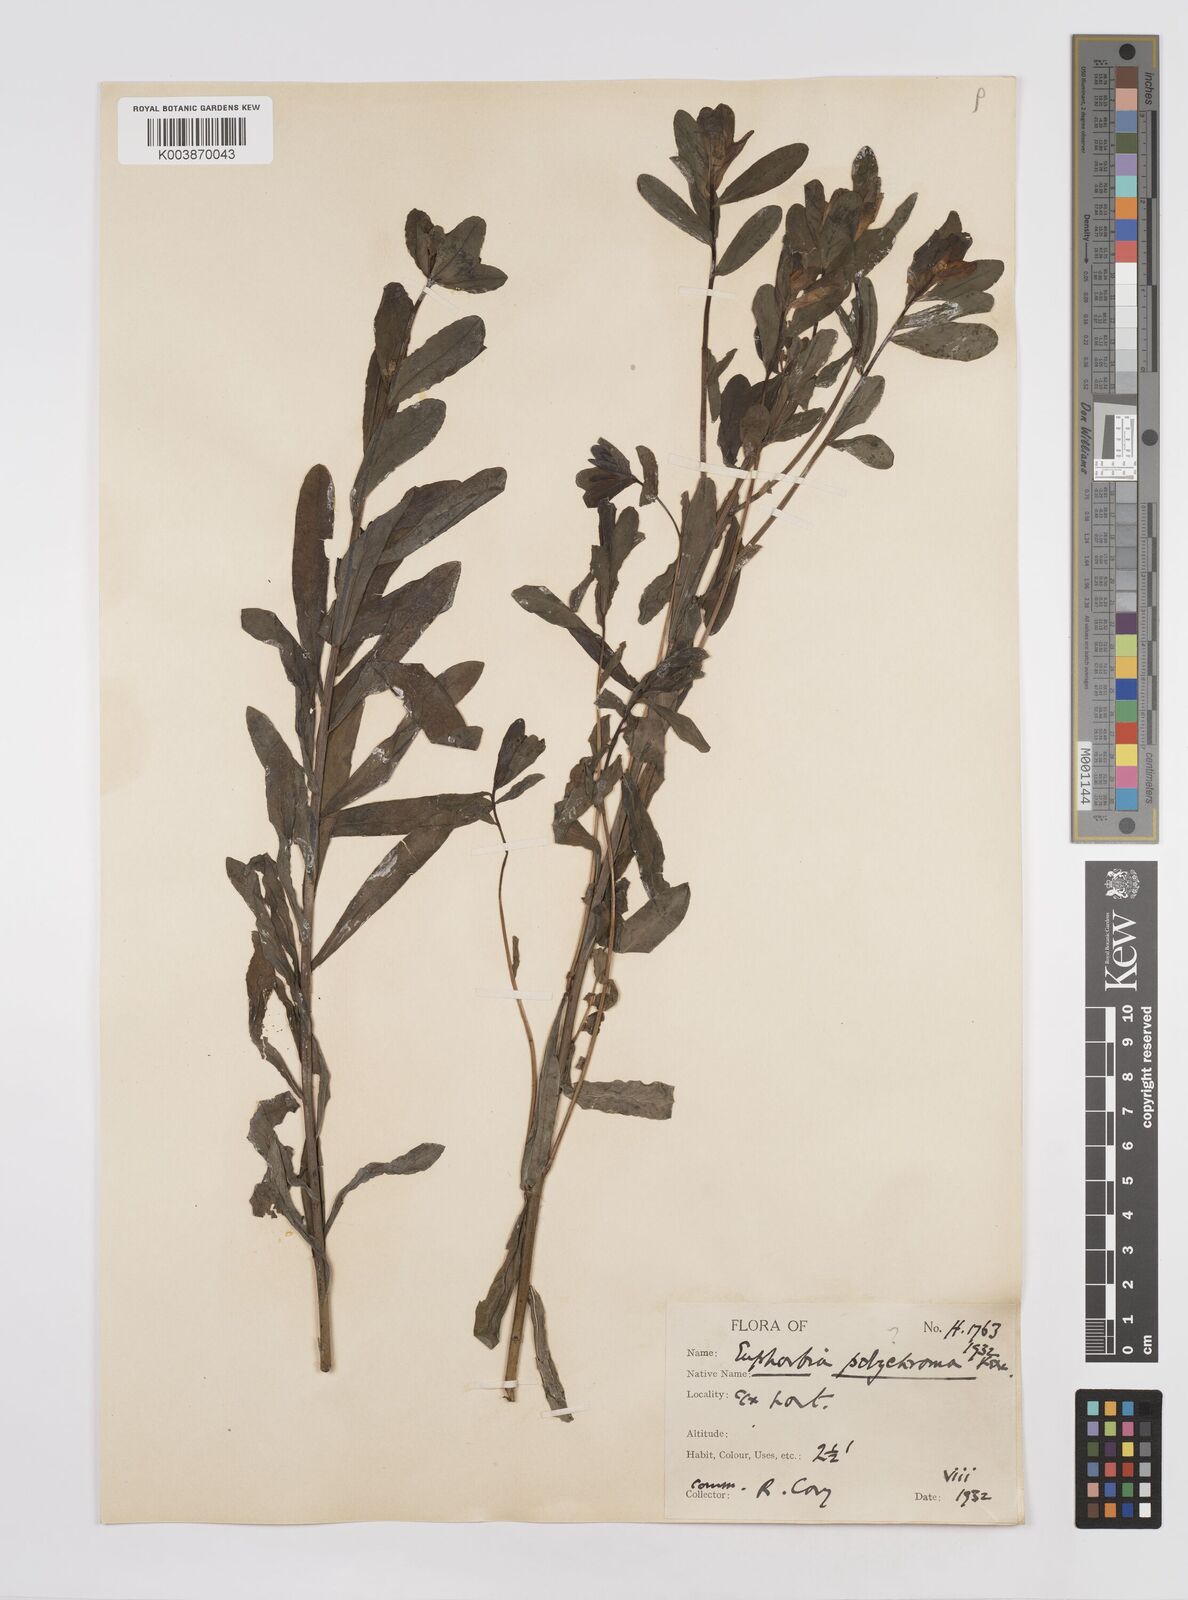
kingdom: Plantae
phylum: Tracheophyta
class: Magnoliopsida
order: Malpighiales
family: Euphorbiaceae
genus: Euphorbia
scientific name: Euphorbia epithymoides
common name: Cushion spurge
